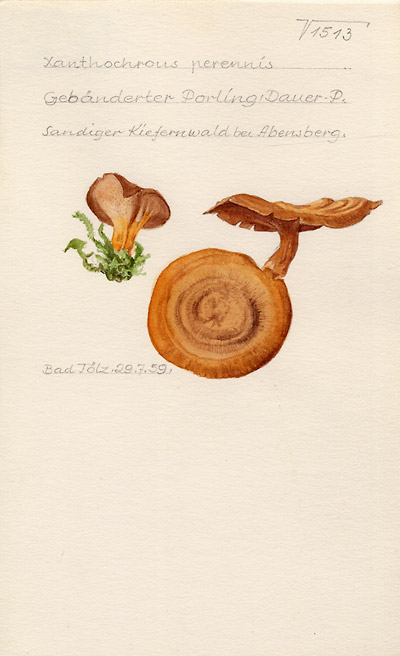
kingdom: Fungi
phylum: Basidiomycota
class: Agaricomycetes
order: Hymenochaetales
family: Hymenochaetaceae
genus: Coltricia
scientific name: Coltricia perennis
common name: Tiger's eye
